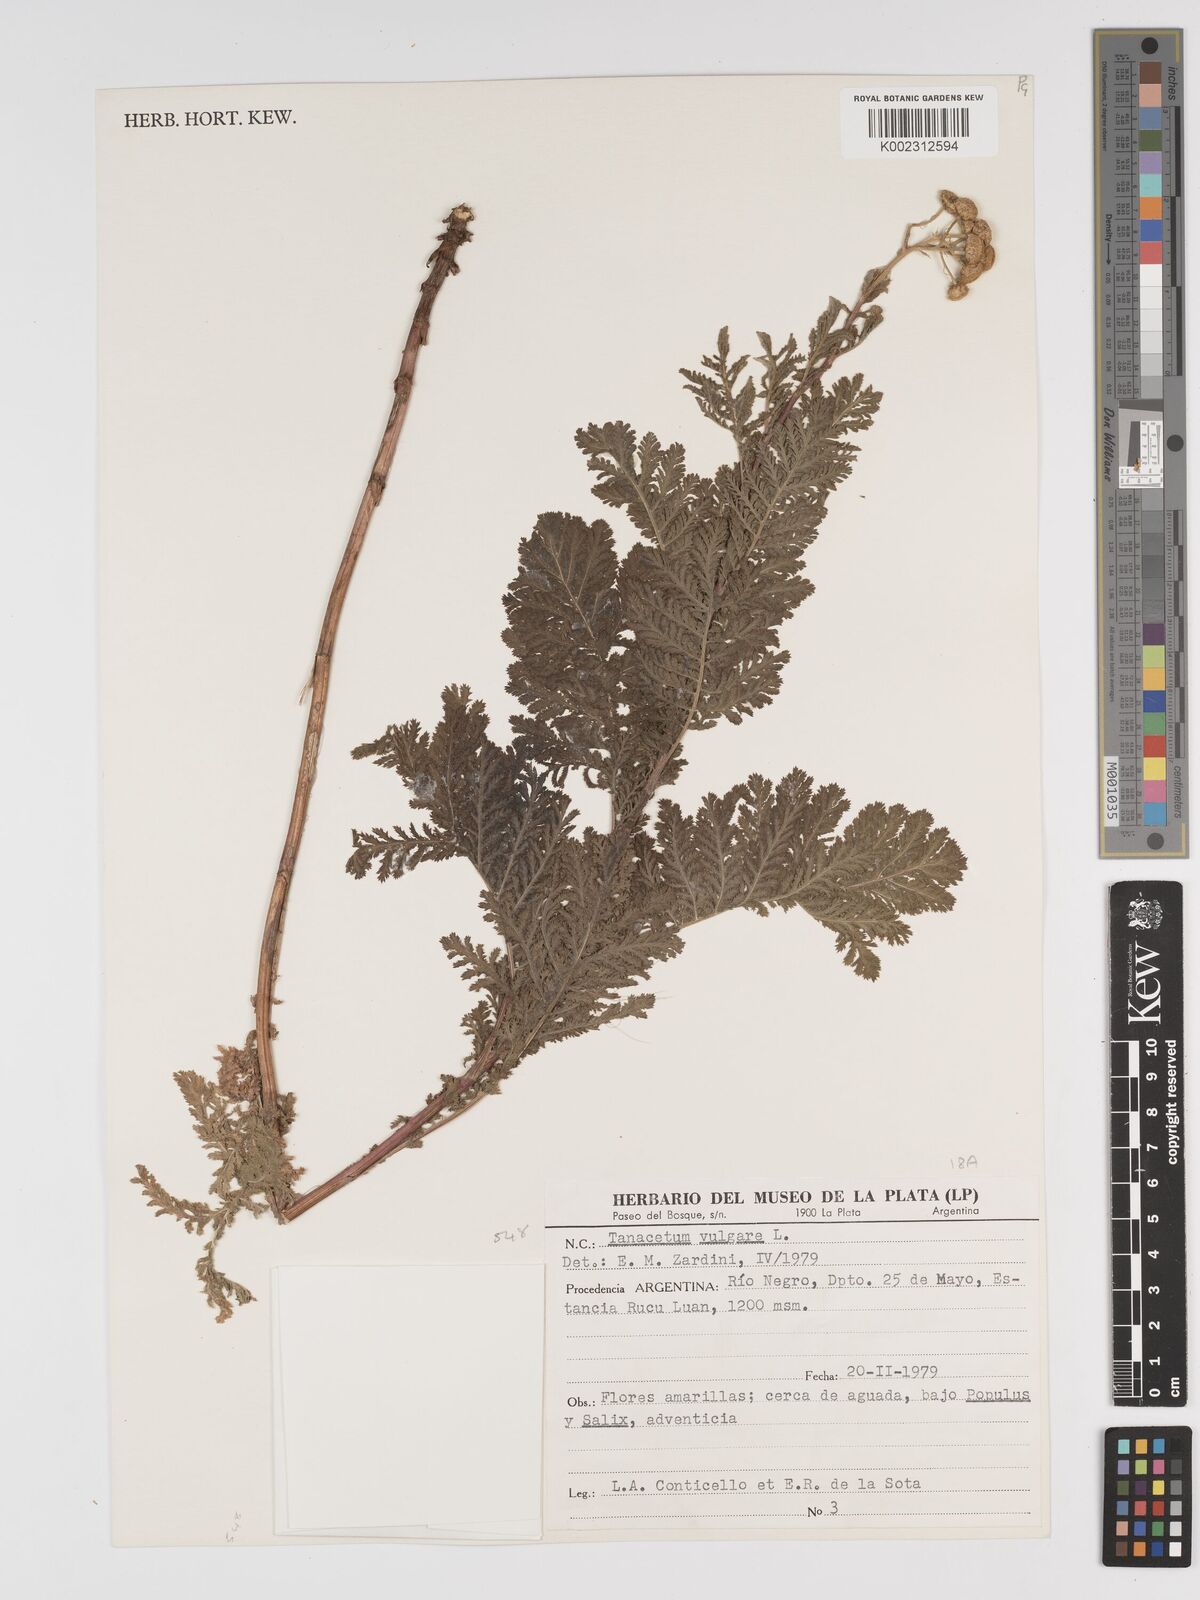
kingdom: Plantae
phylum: Tracheophyta
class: Magnoliopsida
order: Asterales
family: Asteraceae
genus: Tanacetum
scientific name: Tanacetum vulgare
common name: Common tansy
